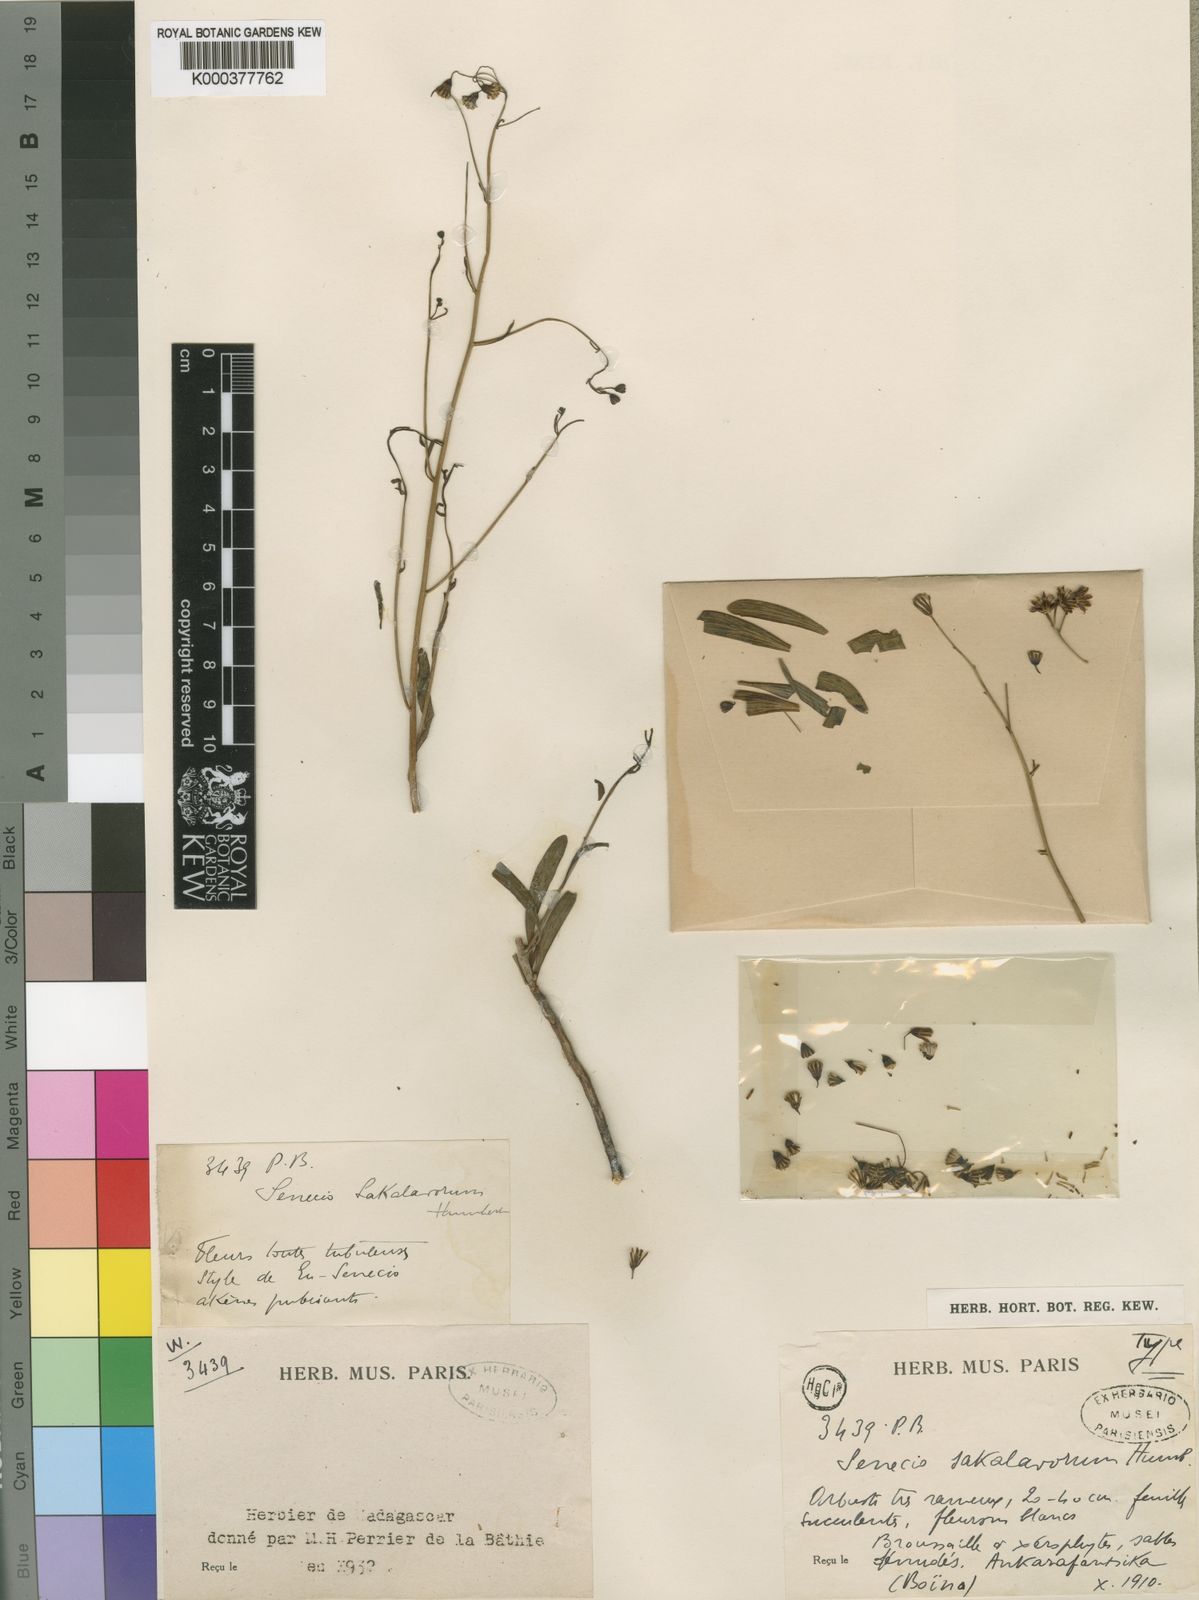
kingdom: Plantae
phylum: Tracheophyta
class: Magnoliopsida
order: Asterales
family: Asteraceae
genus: Senecio
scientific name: Senecio sakalavorum
